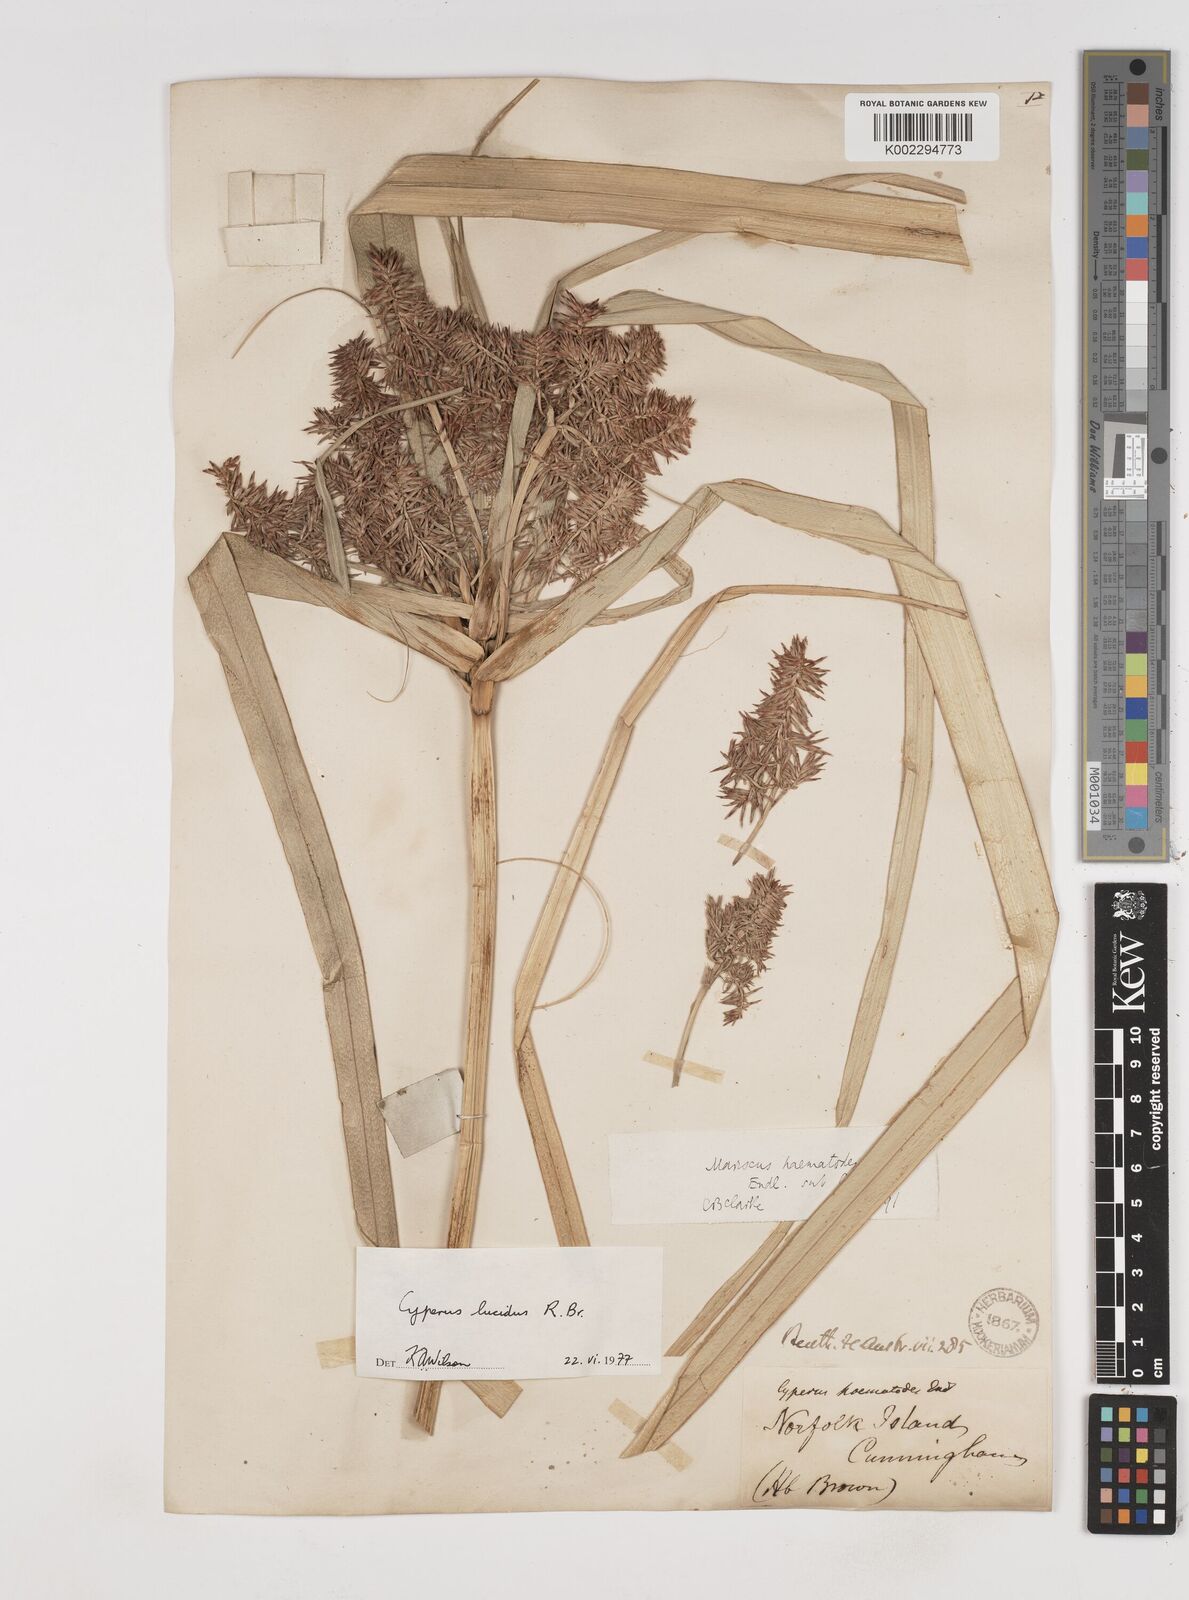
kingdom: Plantae
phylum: Tracheophyta
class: Liliopsida
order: Poales
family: Cyperaceae
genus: Cyperus
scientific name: Cyperus lucidus
